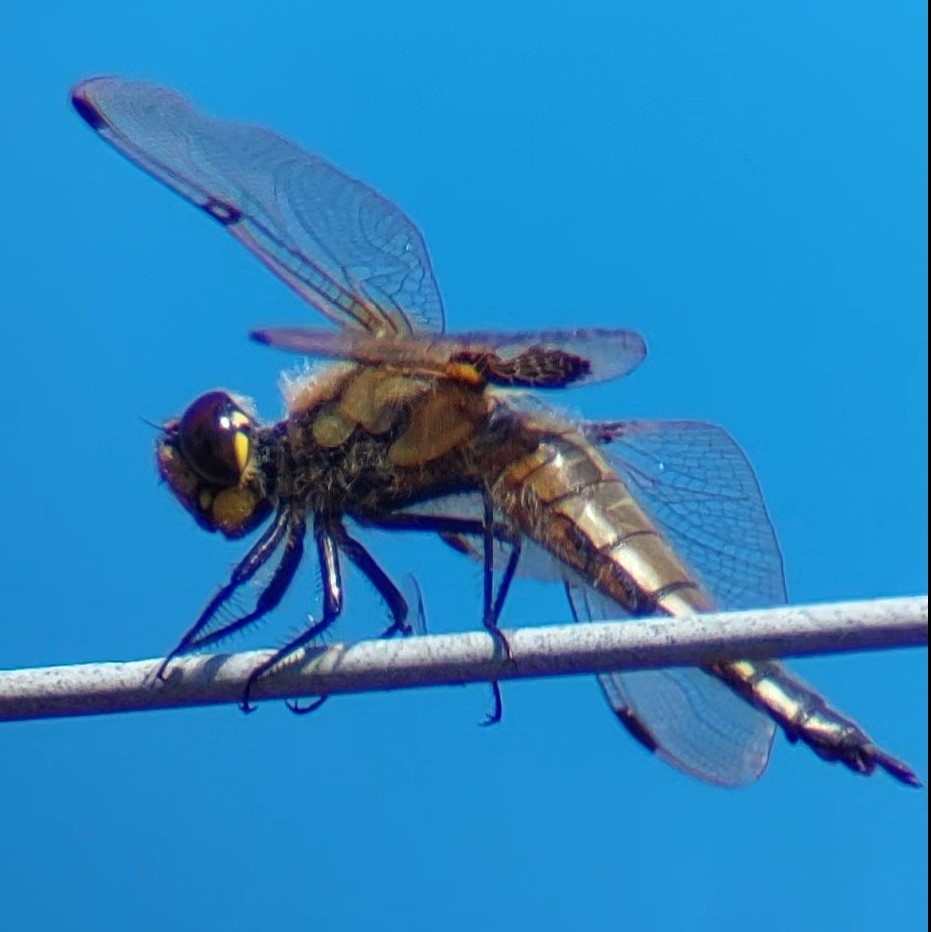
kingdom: Animalia
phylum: Arthropoda
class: Insecta
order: Odonata
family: Libellulidae
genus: Libellula
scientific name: Libellula quadrimaculata
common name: Fireplettet libel
